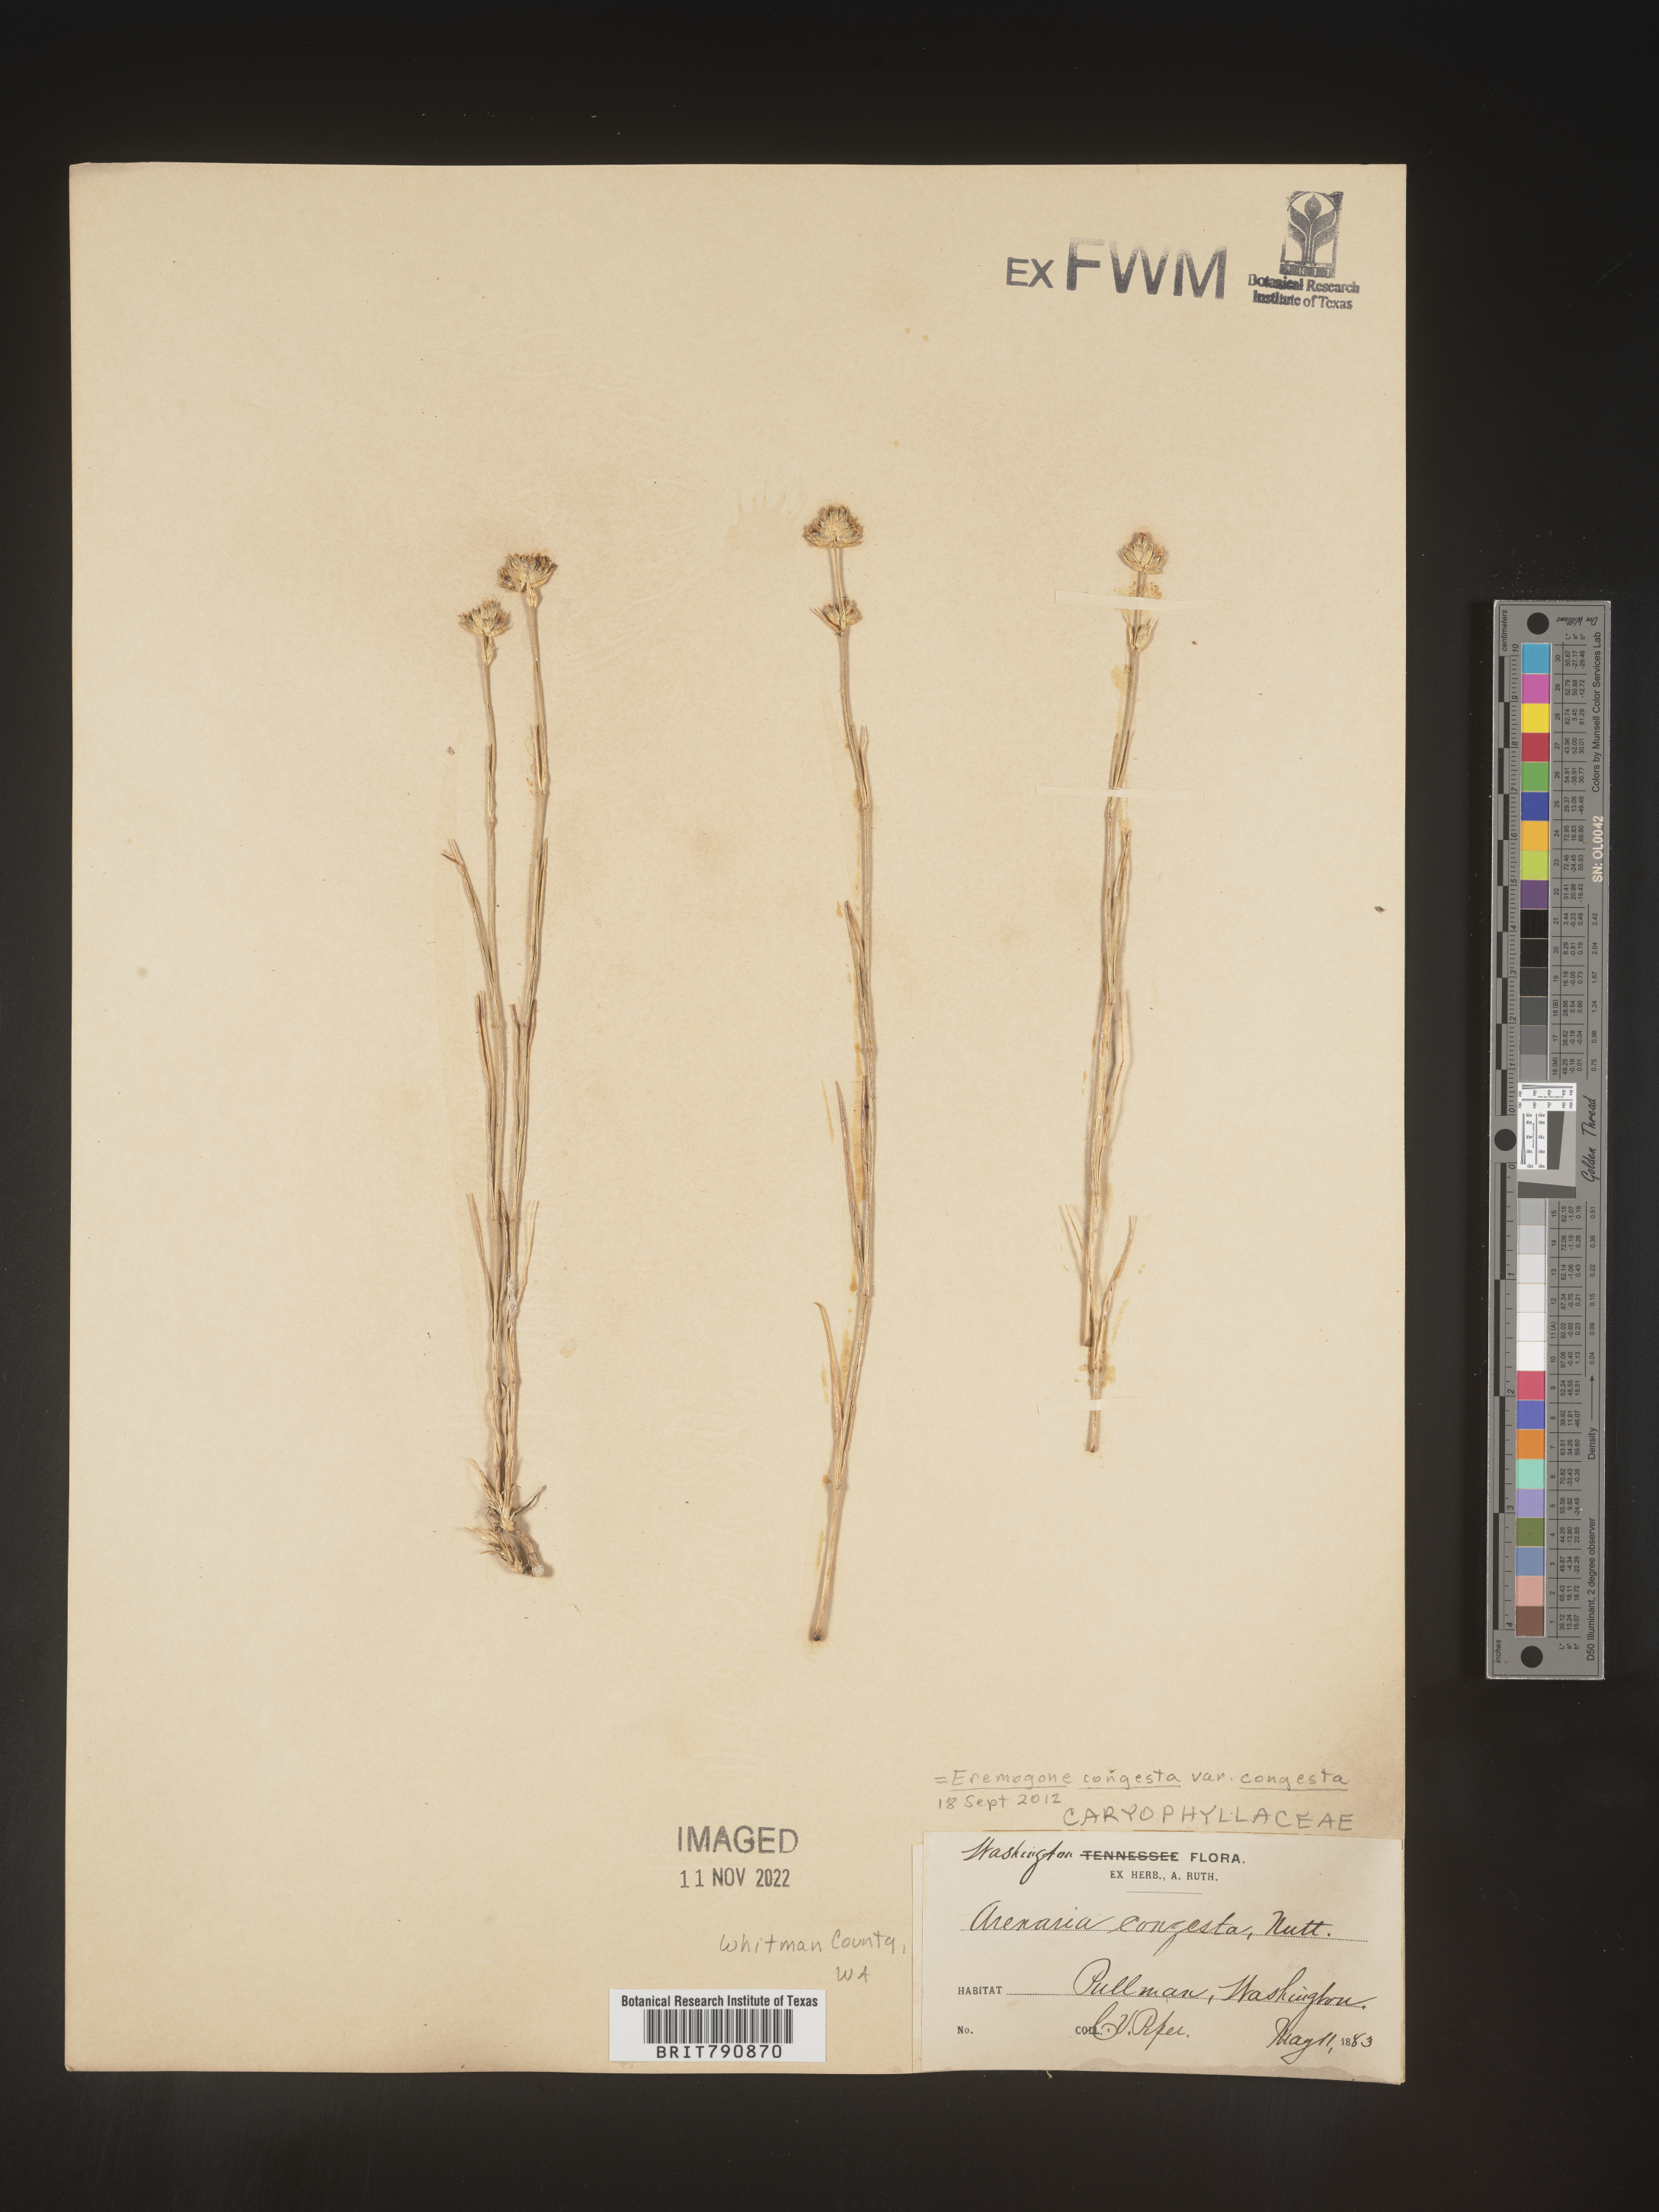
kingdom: Plantae
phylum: Tracheophyta
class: Magnoliopsida
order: Caryophyllales
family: Caryophyllaceae
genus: Eremogone
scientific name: Eremogone
